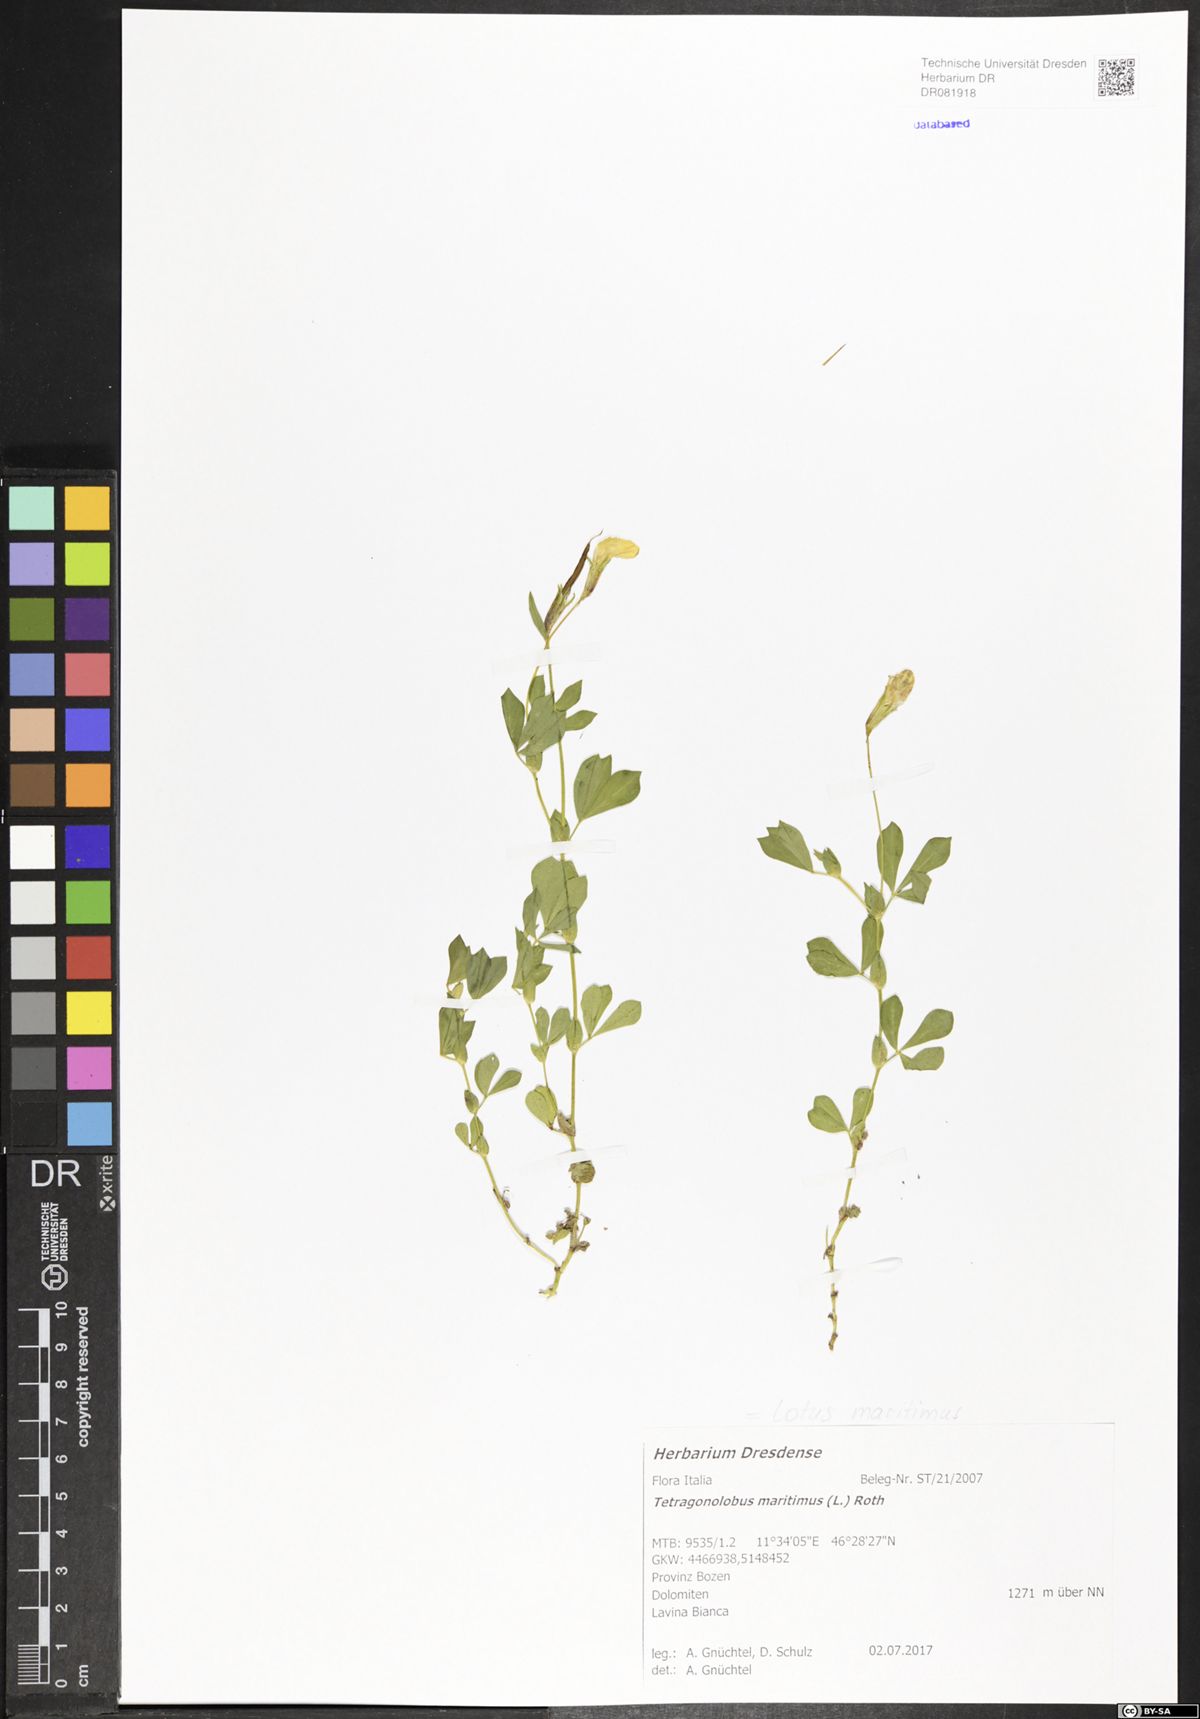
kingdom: Plantae
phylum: Tracheophyta
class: Magnoliopsida
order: Fabales
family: Fabaceae
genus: Lotus
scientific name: Lotus maritimus
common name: Dragon's-teeth
